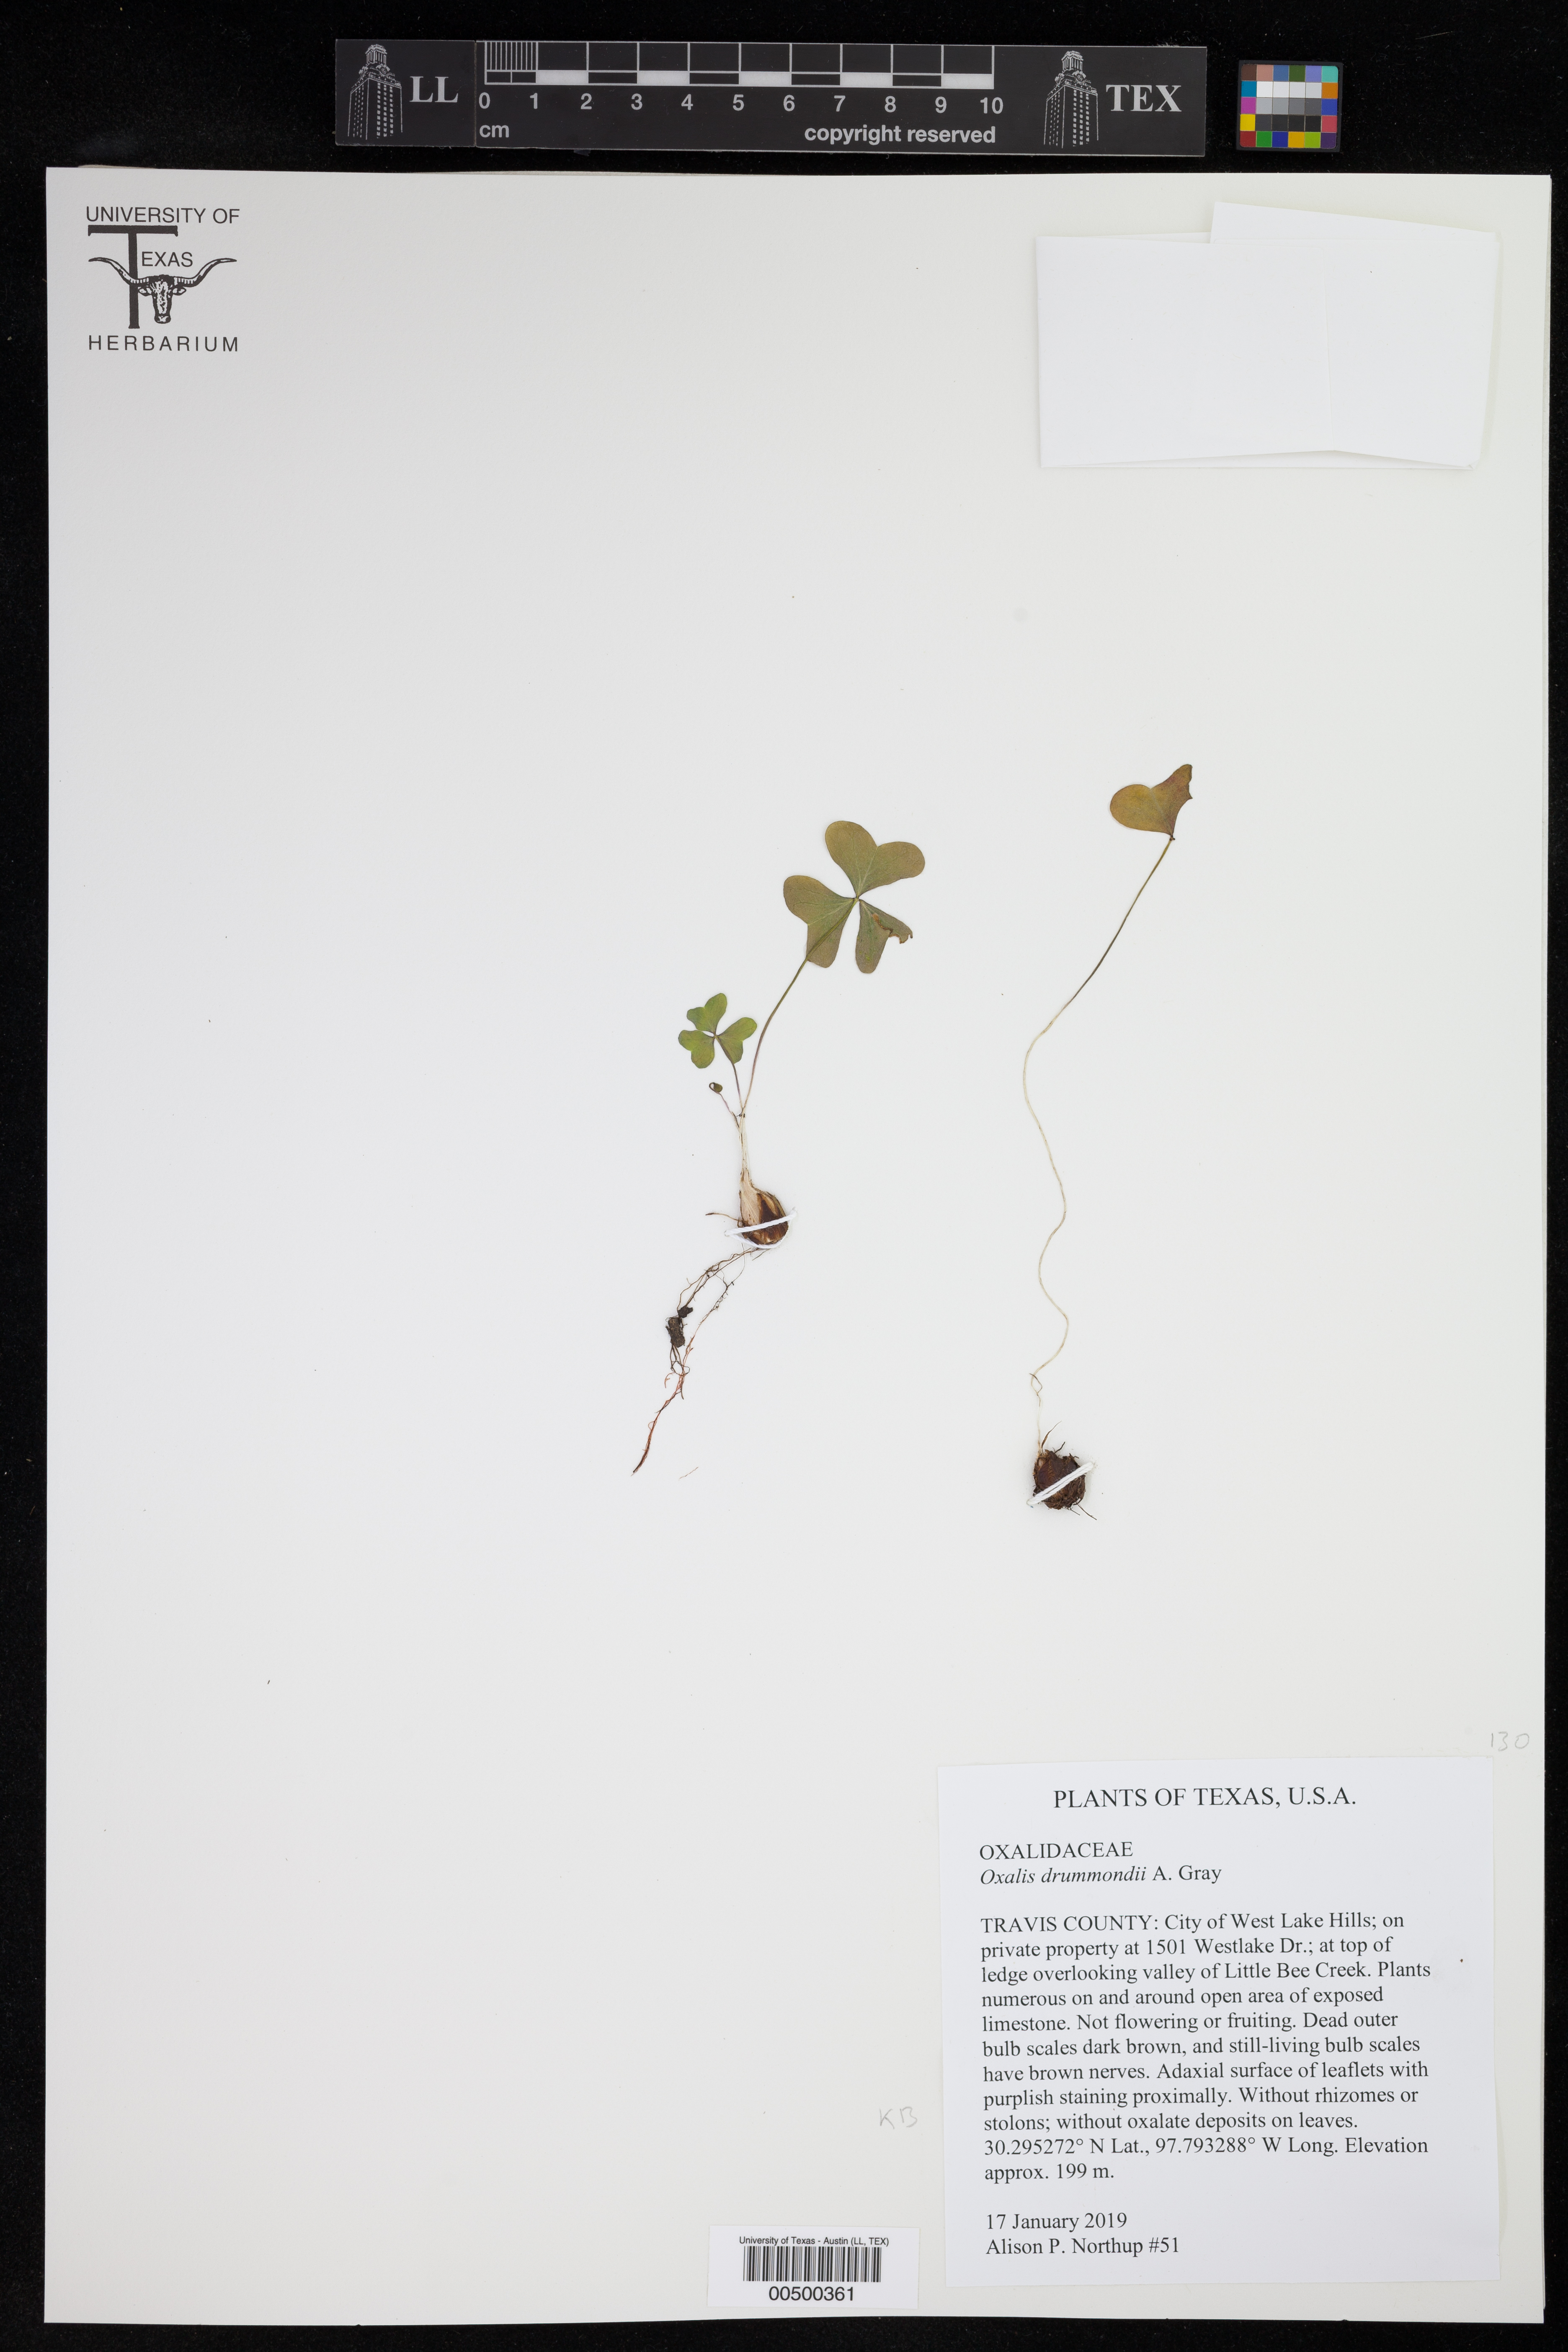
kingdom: Plantae
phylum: Tracheophyta
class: Magnoliopsida
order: Oxalidales
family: Oxalidaceae
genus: Oxalis
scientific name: Oxalis drummondii
